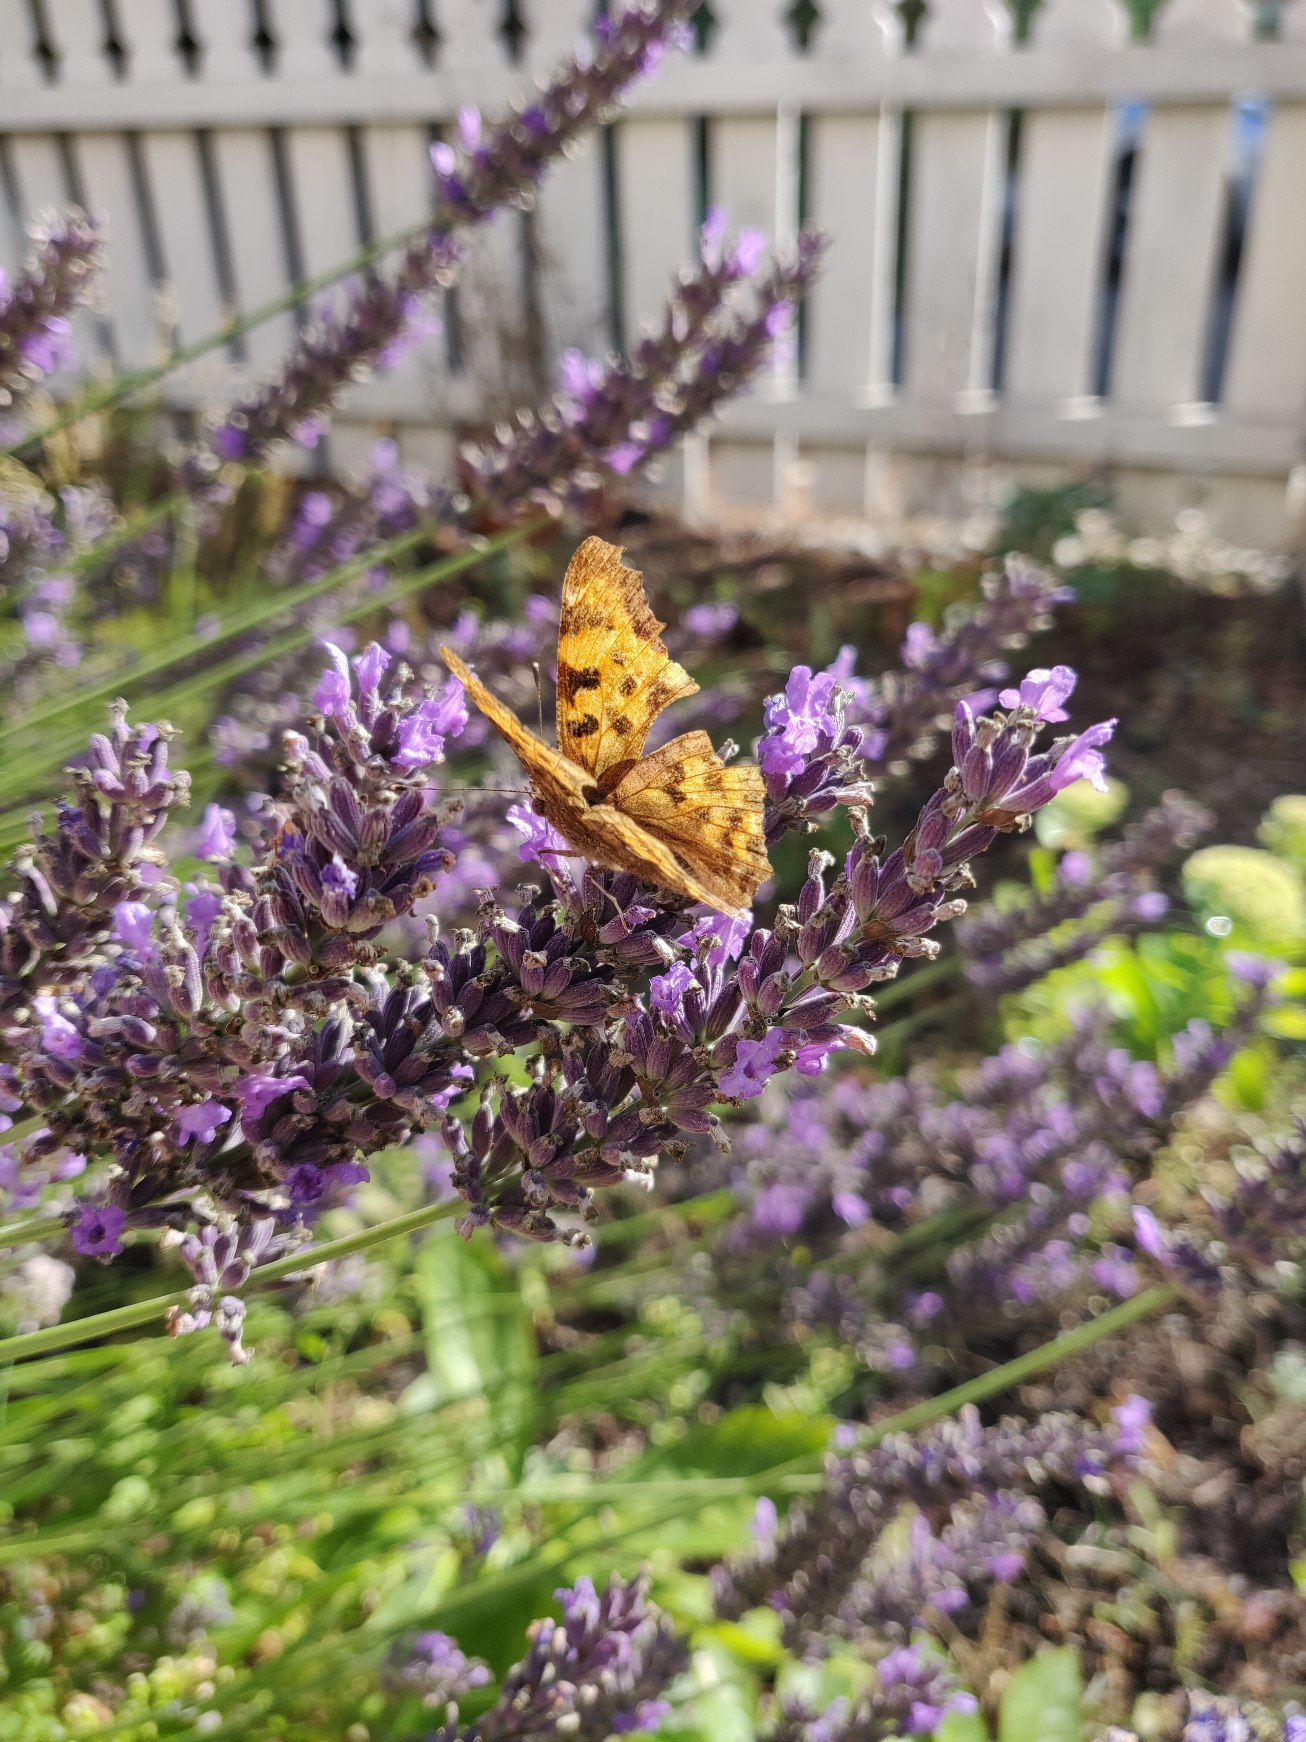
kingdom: Animalia
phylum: Arthropoda
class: Insecta
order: Lepidoptera
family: Nymphalidae
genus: Polygonia
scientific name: Polygonia c-album
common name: Det hvide C
